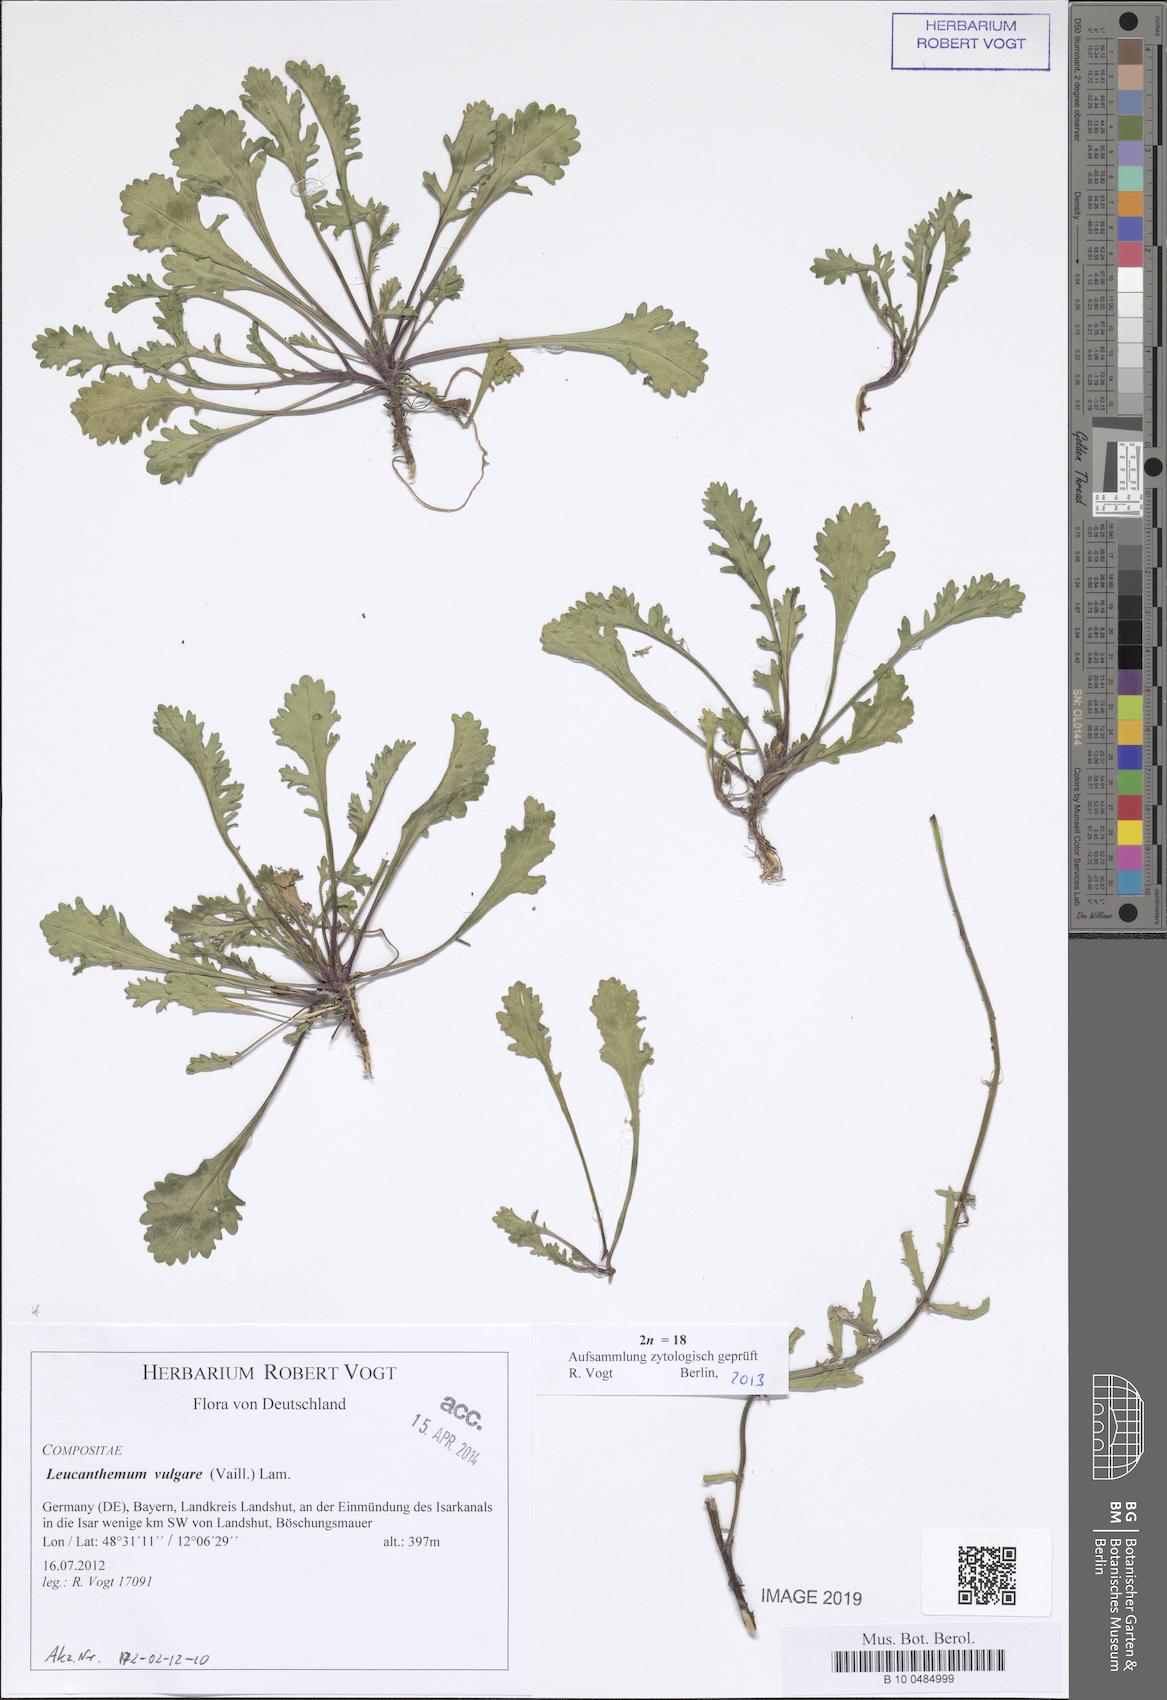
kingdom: Plantae
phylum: Tracheophyta
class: Magnoliopsida
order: Asterales
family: Asteraceae
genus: Leucanthemum
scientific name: Leucanthemum vulgare
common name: Oxeye daisy
